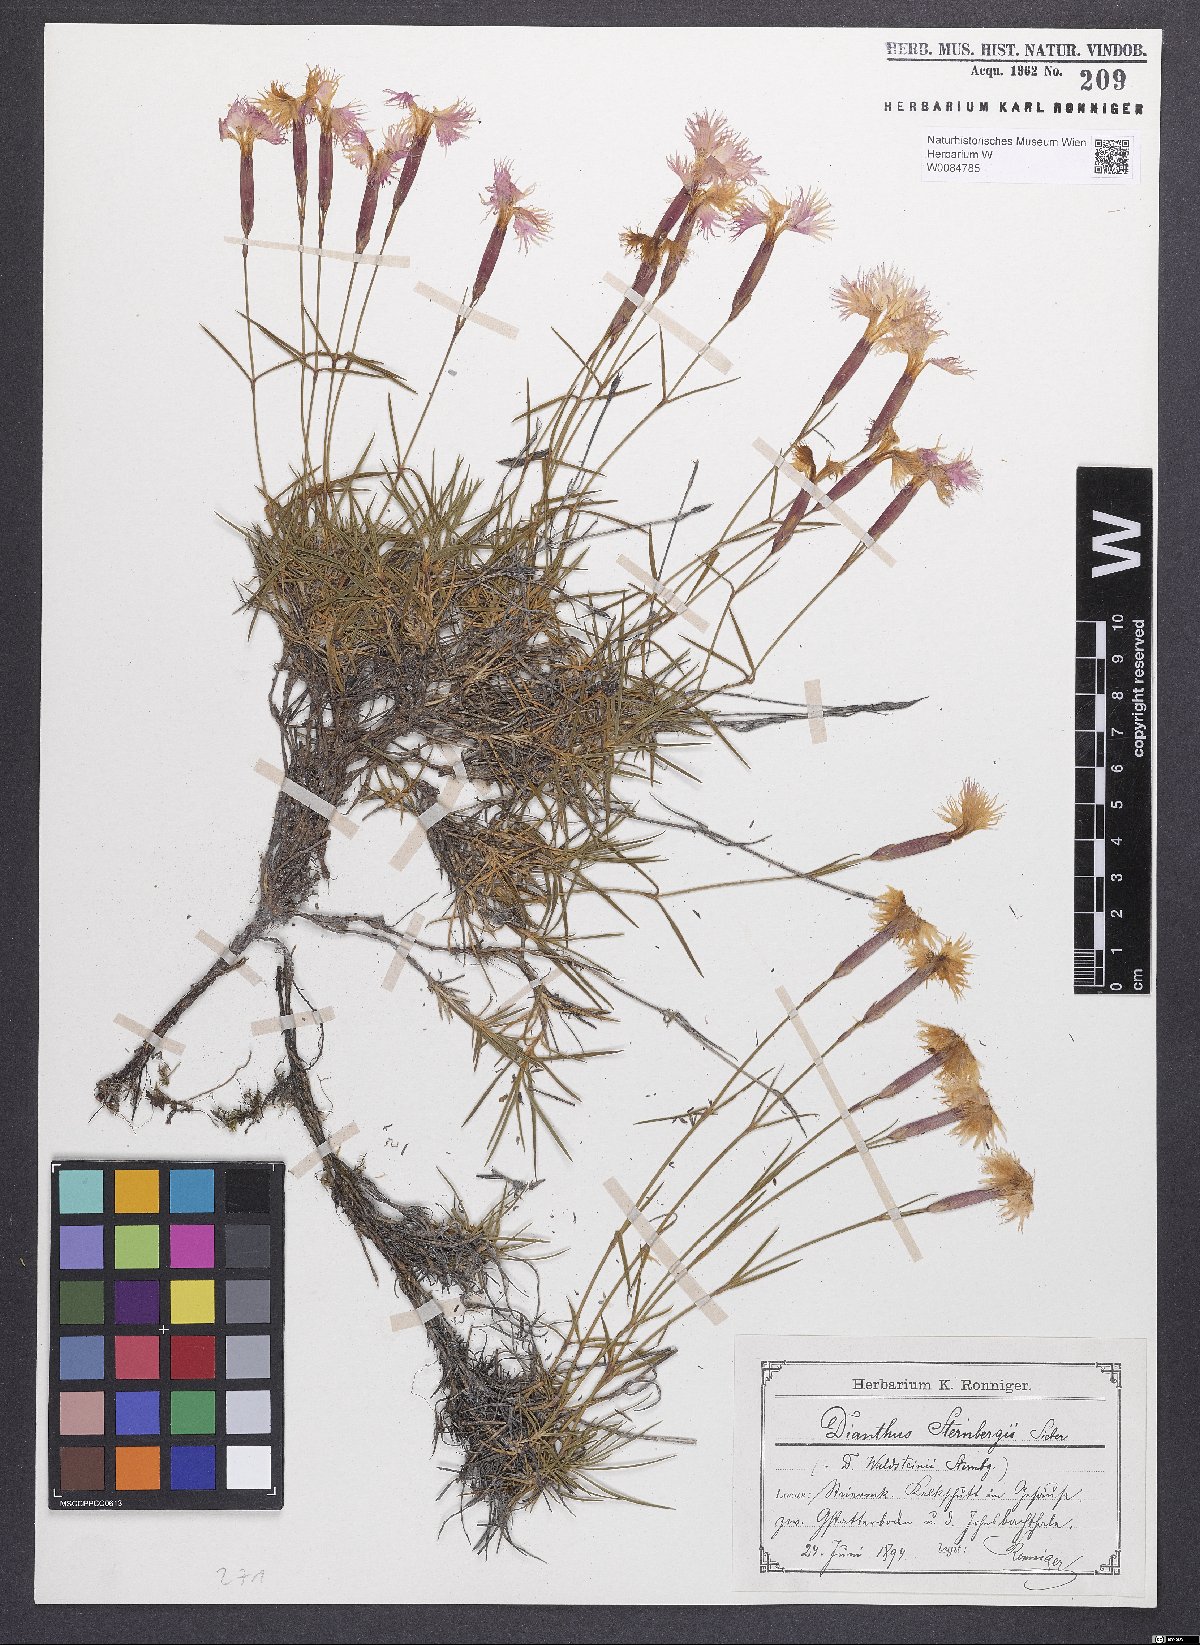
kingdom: Plantae
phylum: Tracheophyta
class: Magnoliopsida
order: Caryophyllales
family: Caryophyllaceae
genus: Dianthus
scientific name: Dianthus monspessulanus
